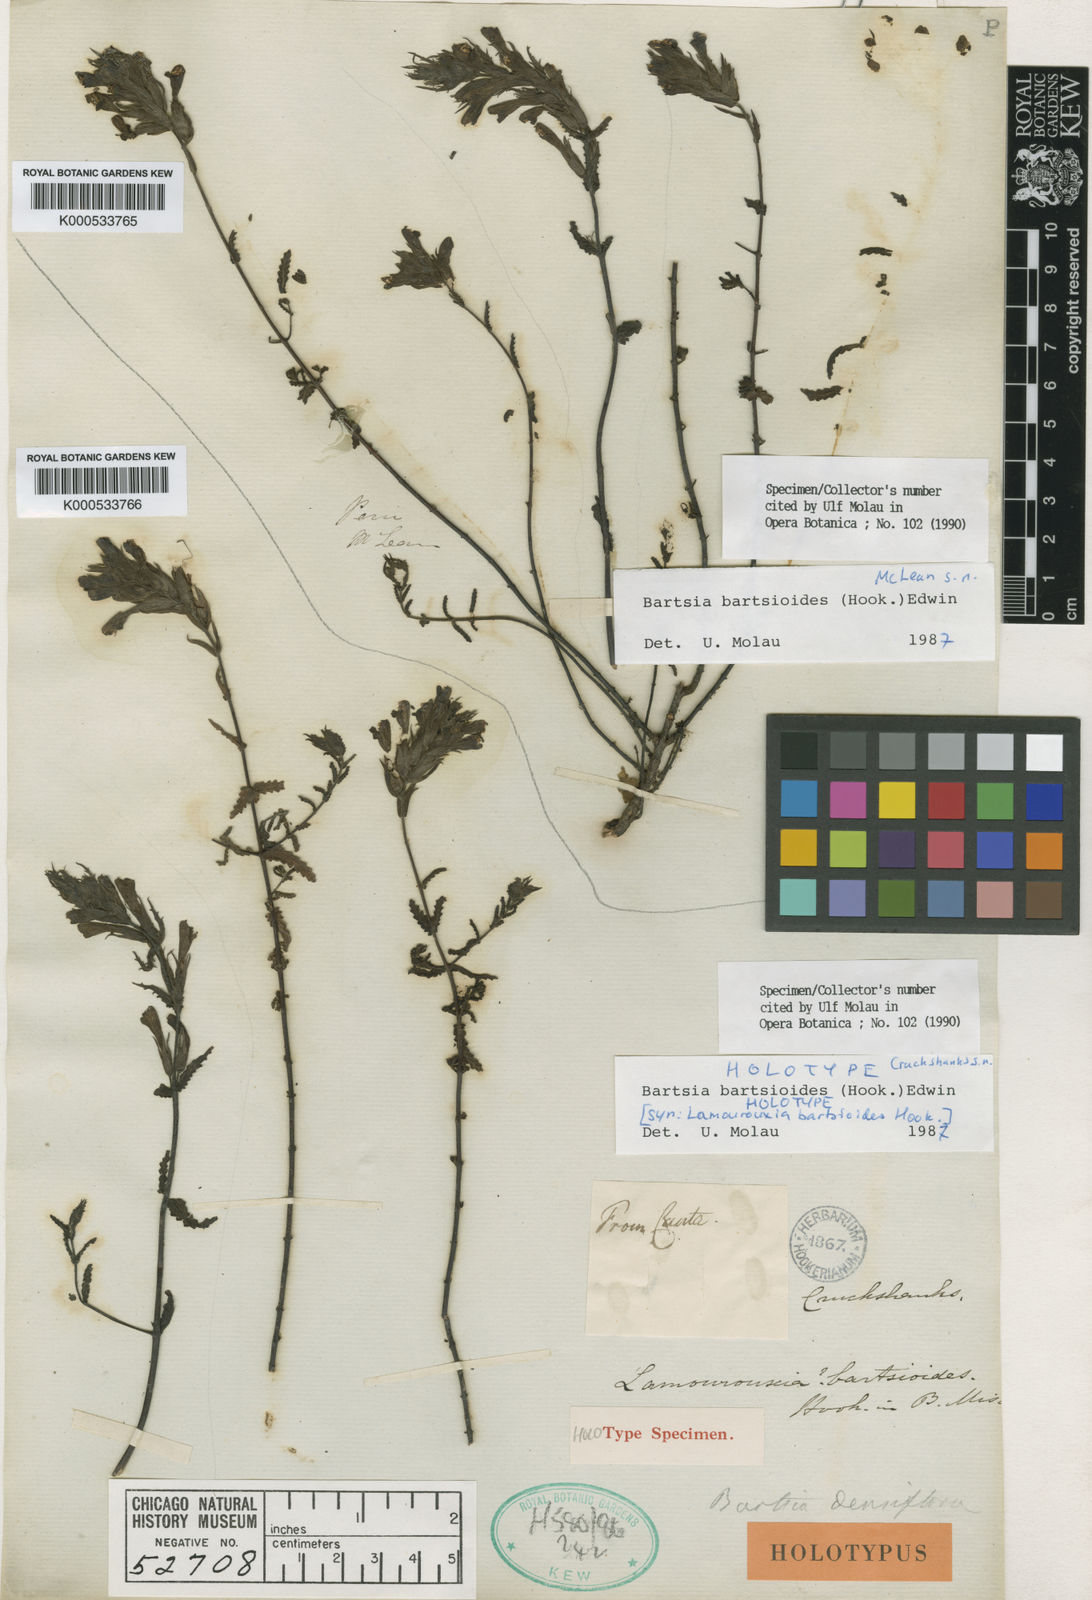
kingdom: Plantae
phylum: Tracheophyta
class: Magnoliopsida
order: Lamiales
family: Orobanchaceae
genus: Neobartsia
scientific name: Neobartsia bartsioides
